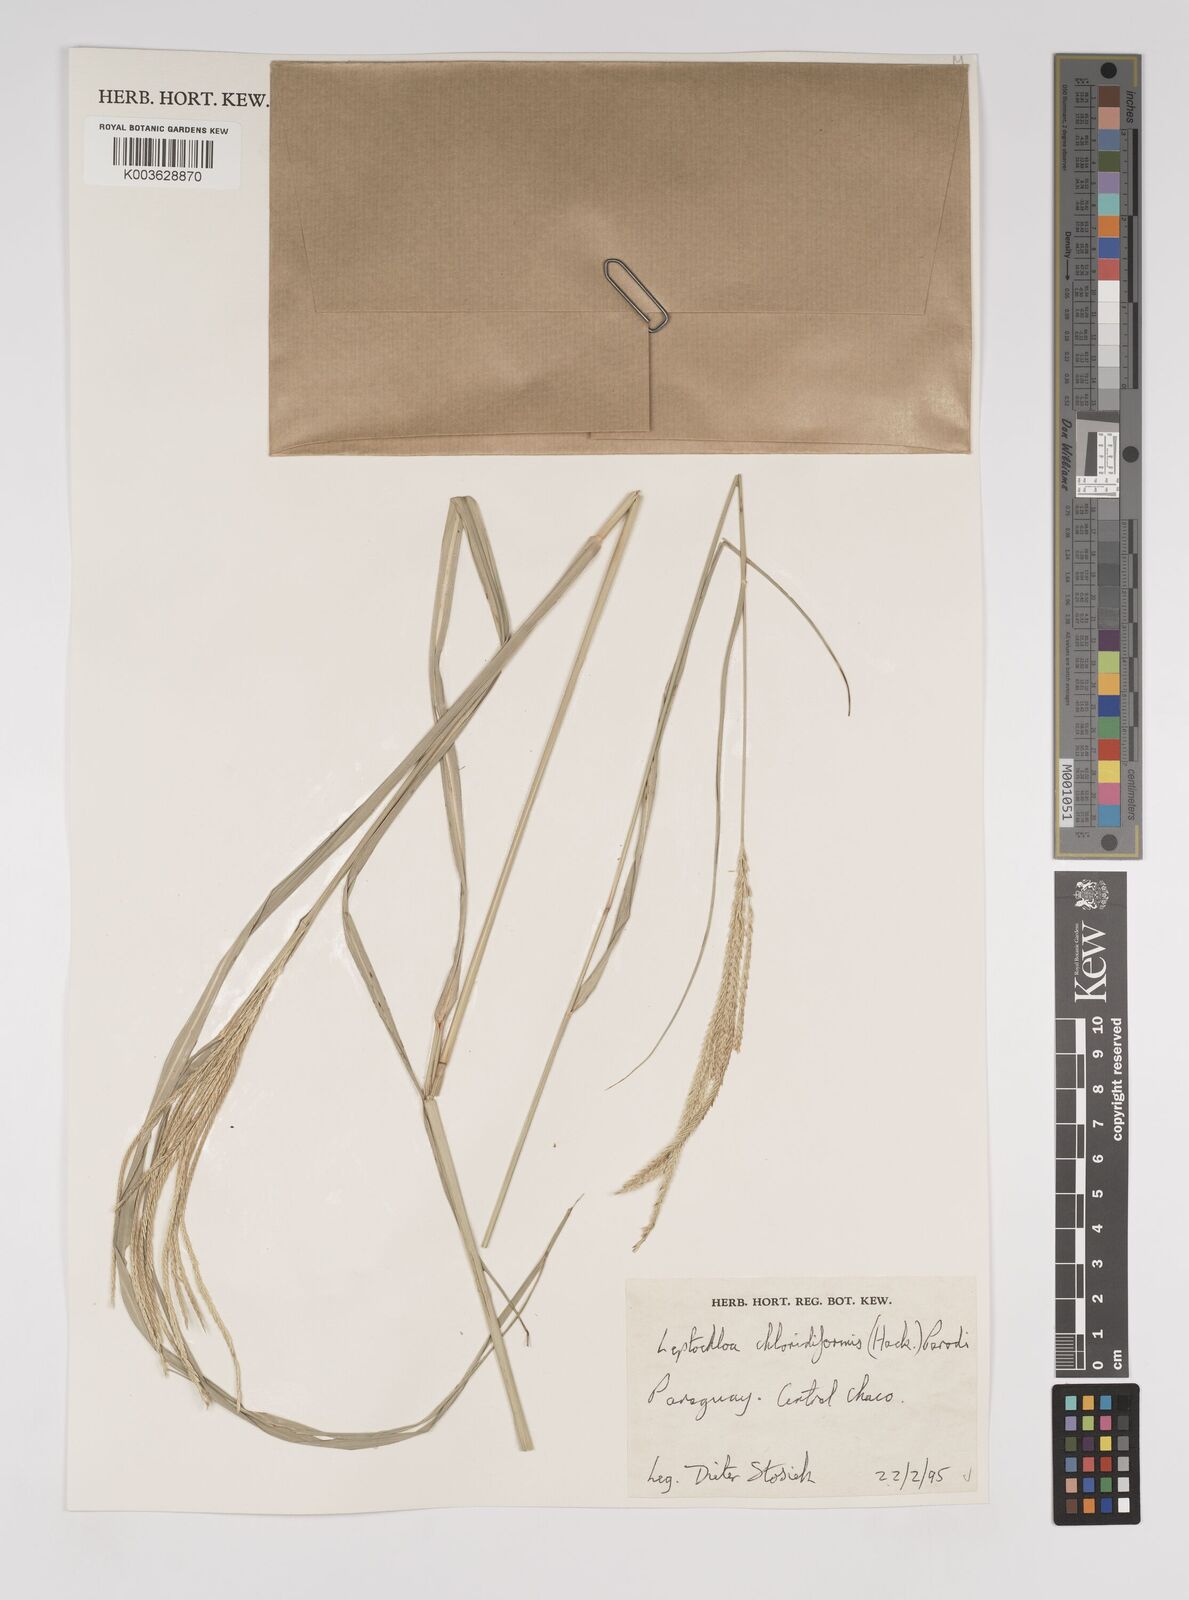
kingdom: Plantae
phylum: Tracheophyta
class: Liliopsida
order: Poales
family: Poaceae
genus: Leptochloa
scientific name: Leptochloa chloridiformis
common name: Argentine sprangletop
